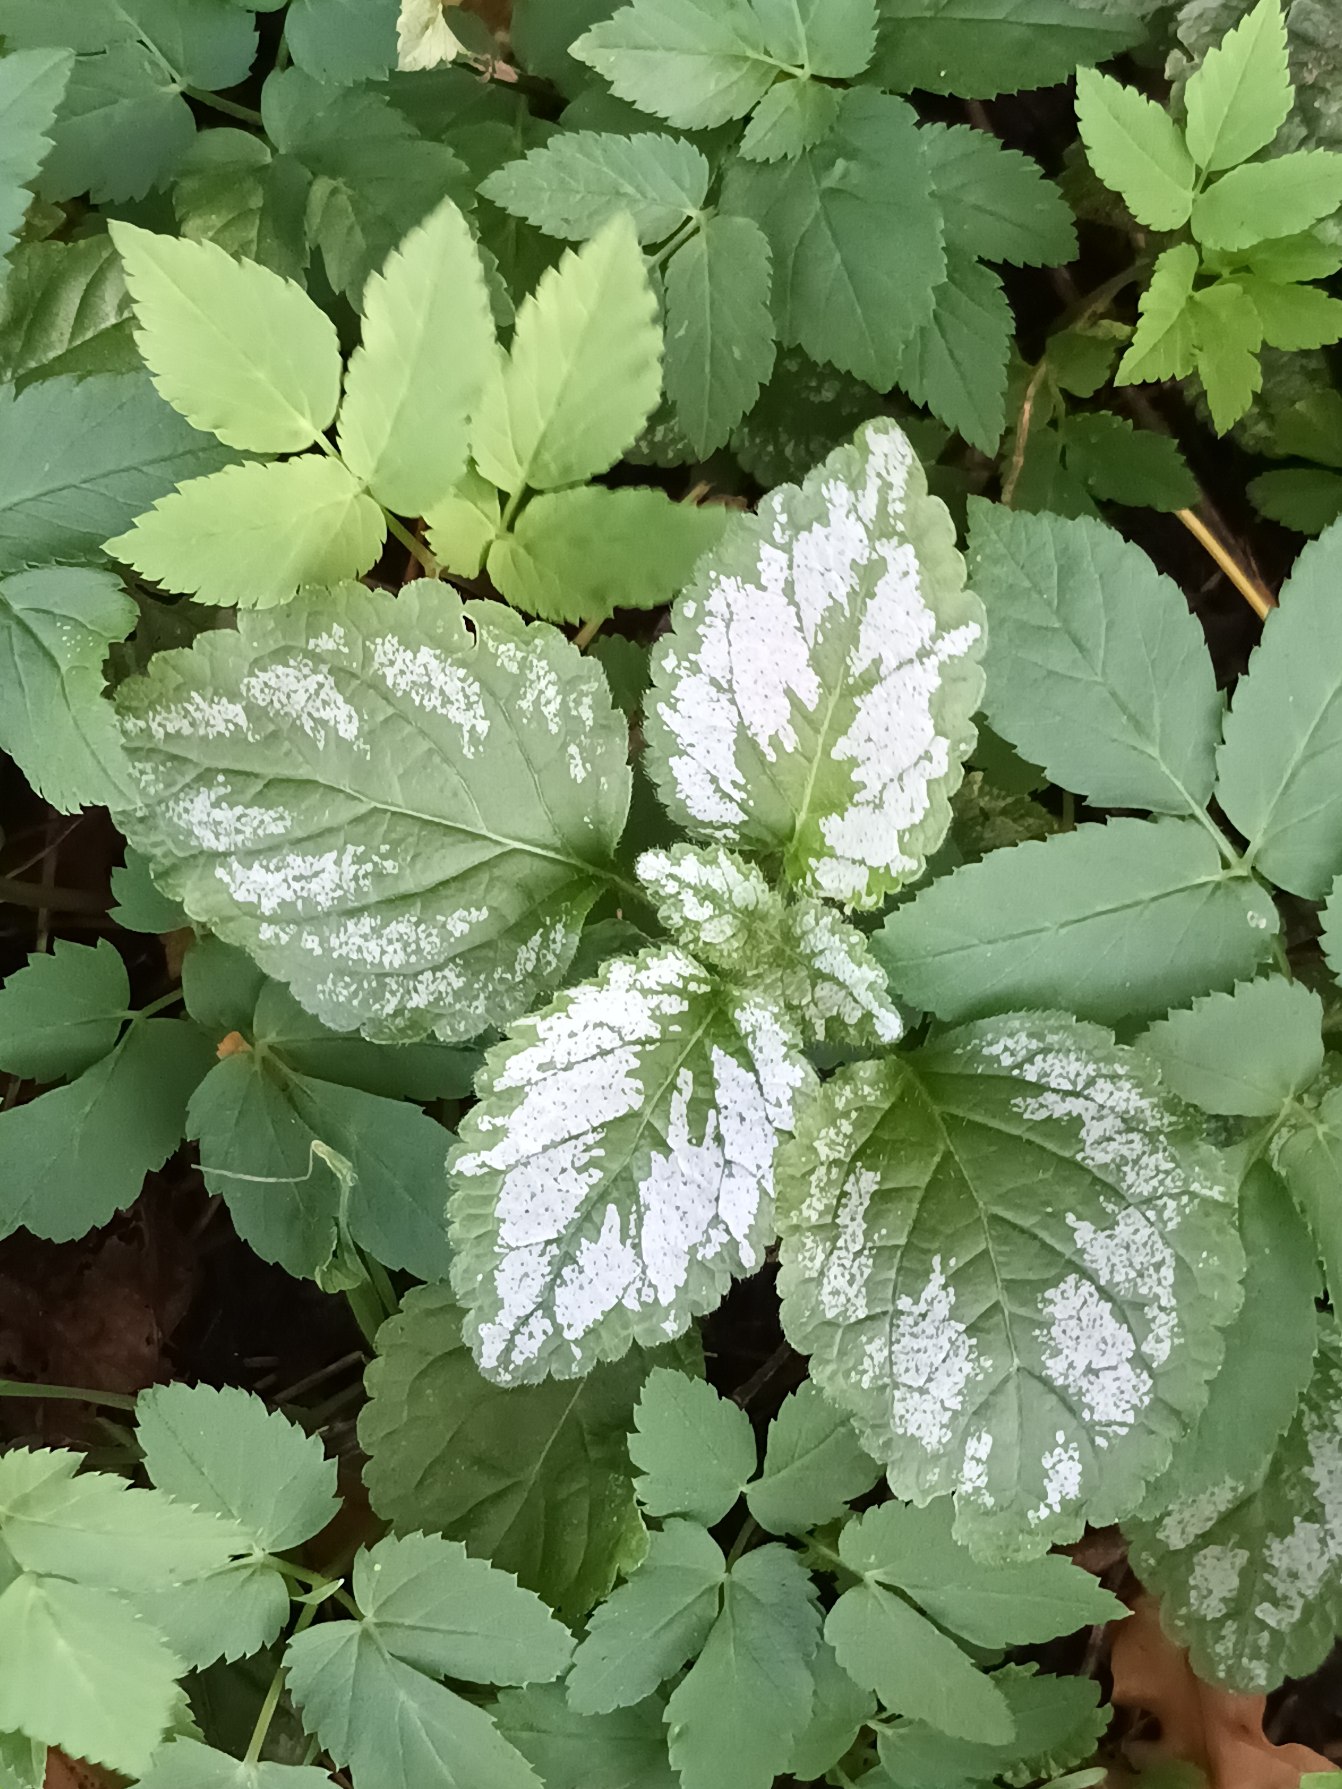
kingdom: Plantae
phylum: Tracheophyta
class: Magnoliopsida
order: Lamiales
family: Lamiaceae
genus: Lamium
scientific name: Lamium galeobdolon
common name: Have-guldnælde
